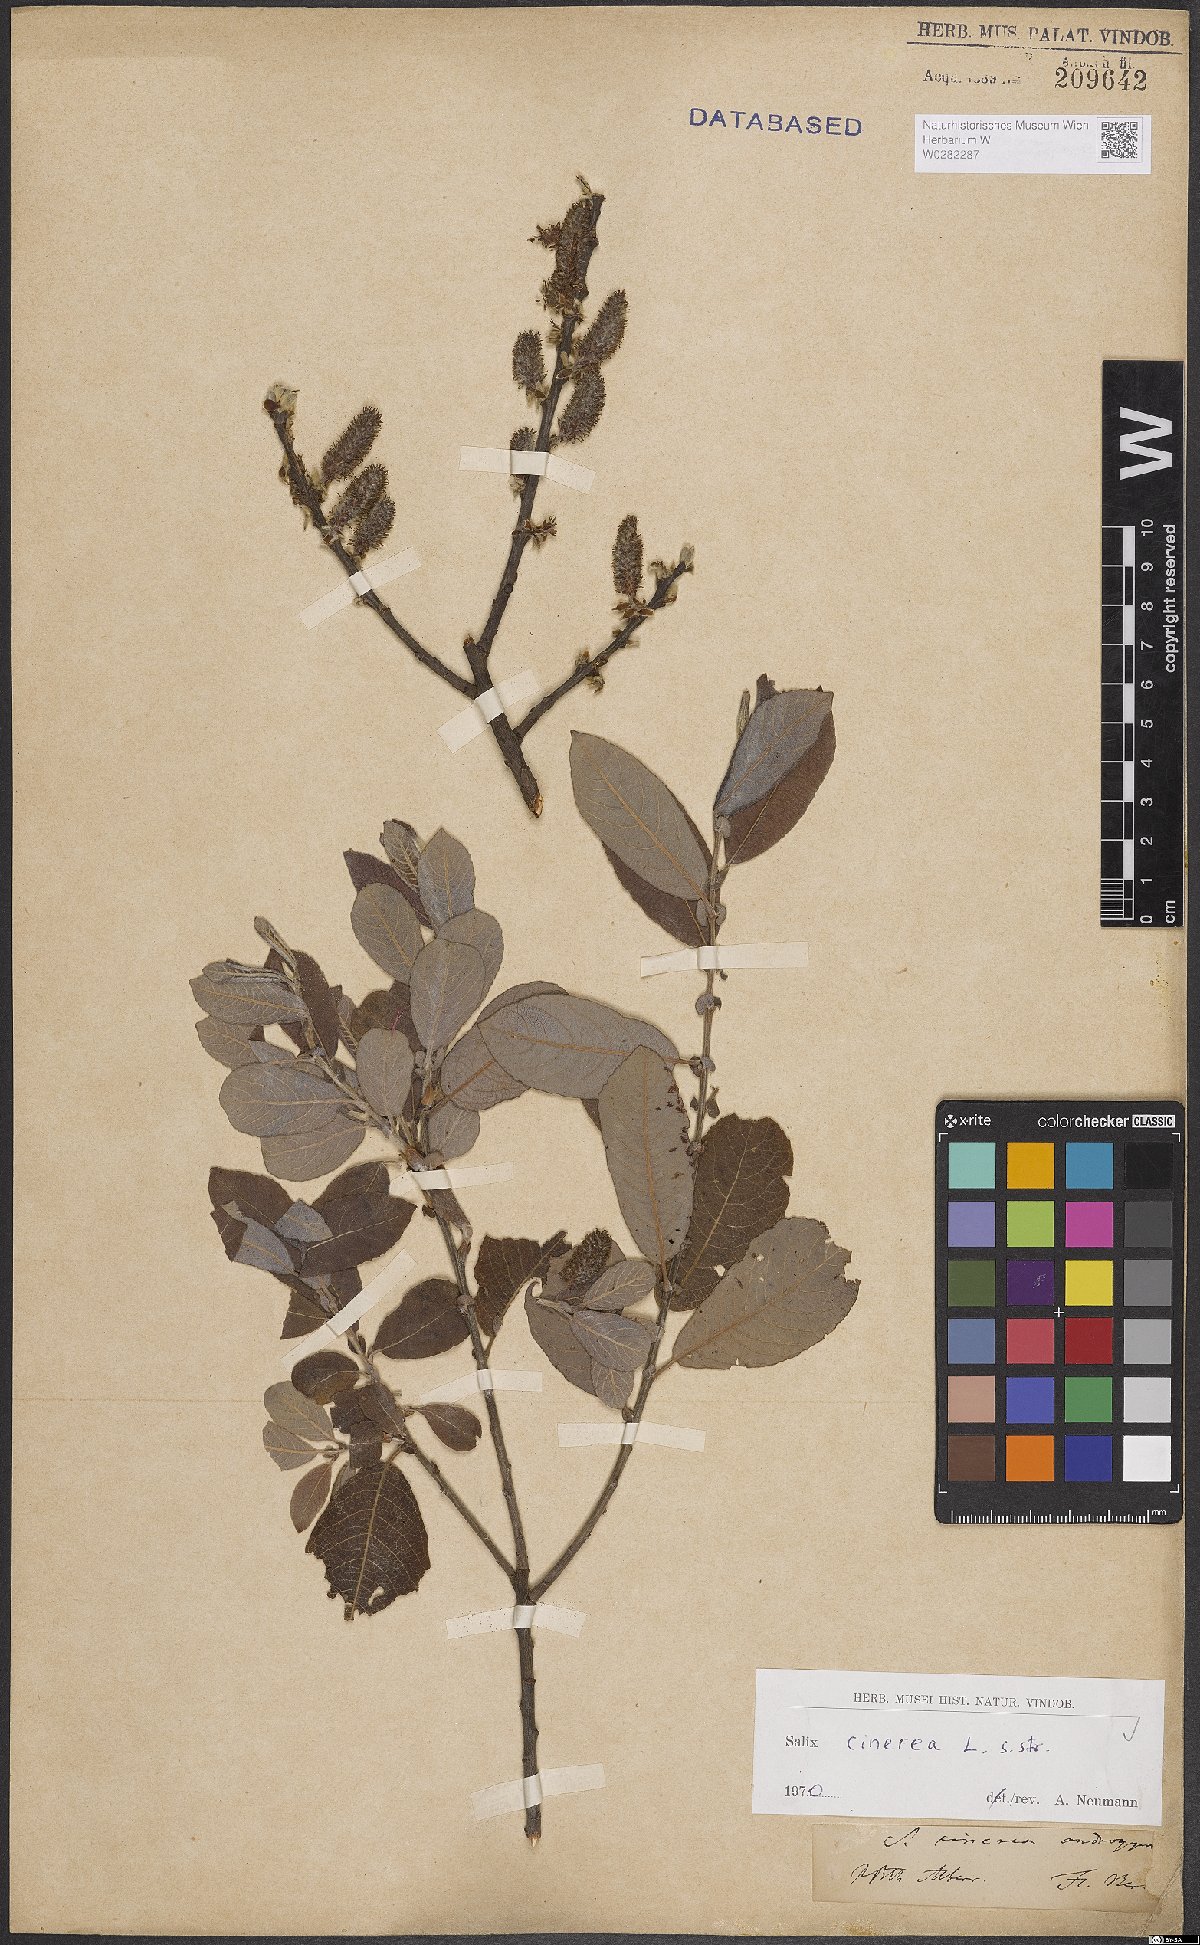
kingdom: Plantae
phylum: Tracheophyta
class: Magnoliopsida
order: Malpighiales
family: Salicaceae
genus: Salix
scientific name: Salix cinerea
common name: Common sallow
